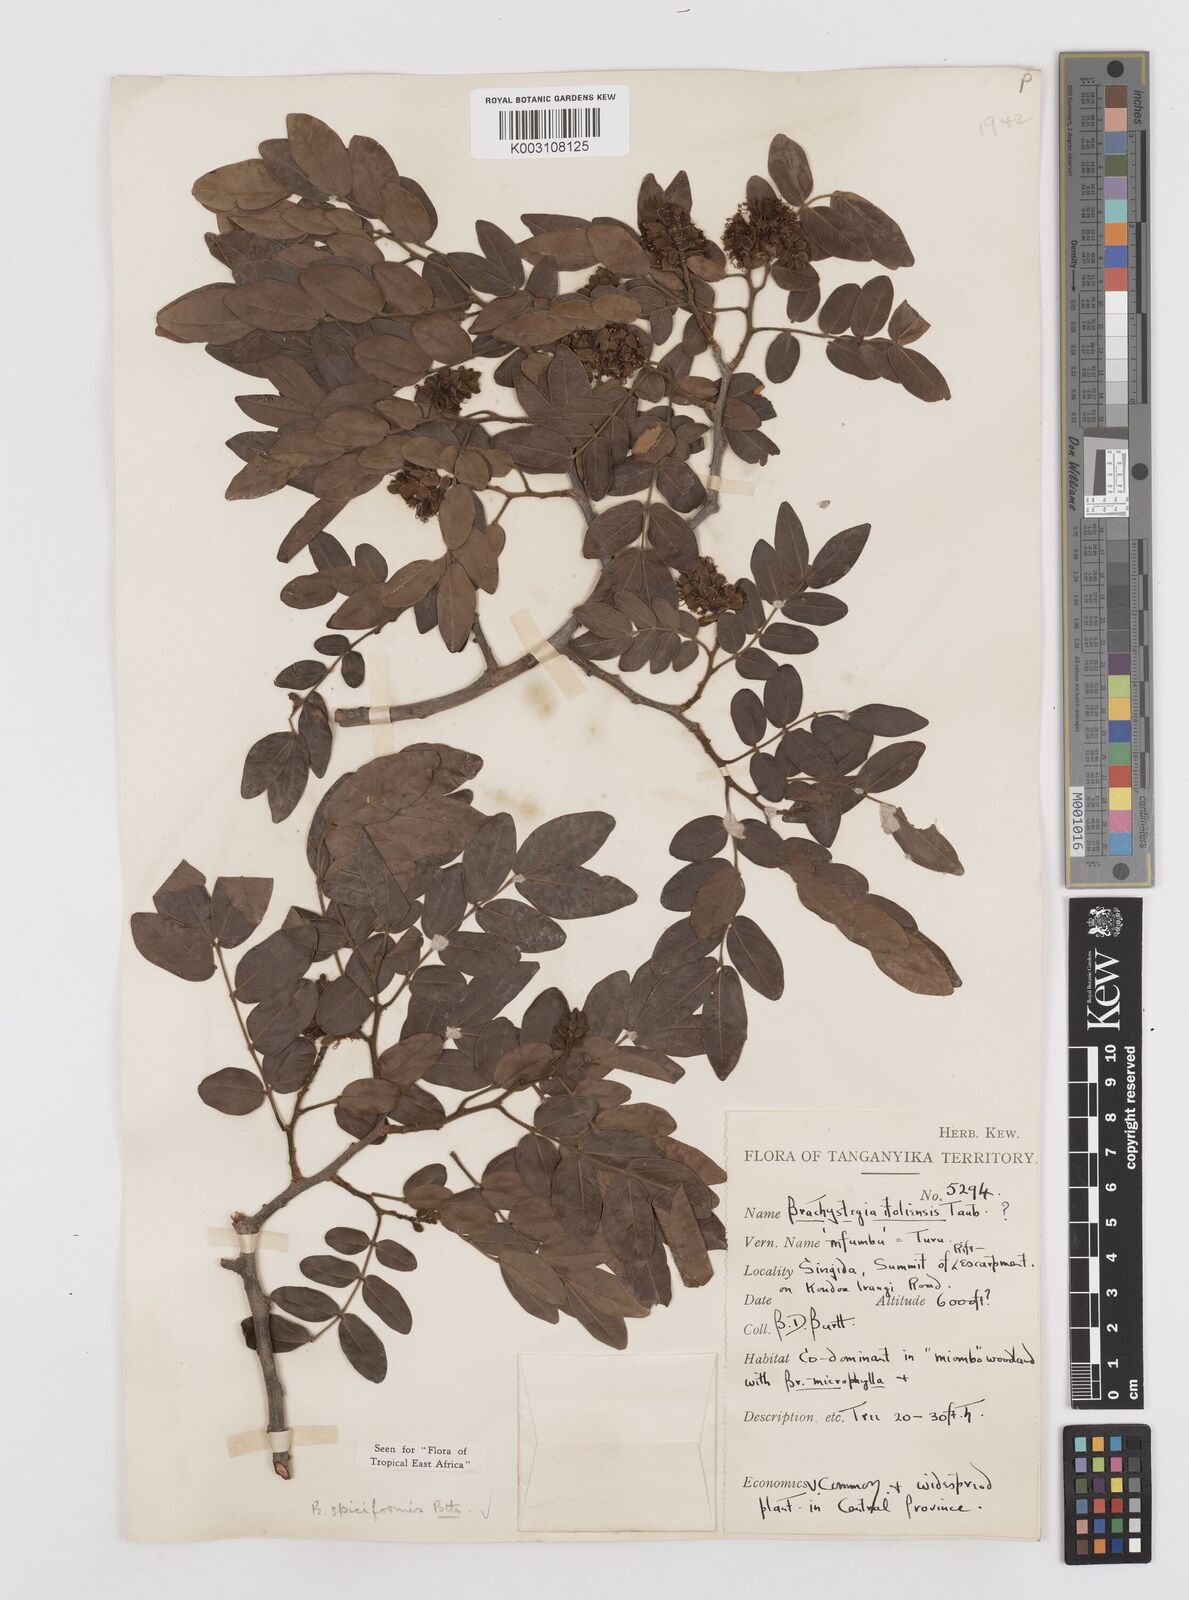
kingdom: Plantae
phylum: Tracheophyta
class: Magnoliopsida
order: Fabales
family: Fabaceae
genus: Brachystegia
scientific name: Brachystegia spiciformis
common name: Zebrawood
